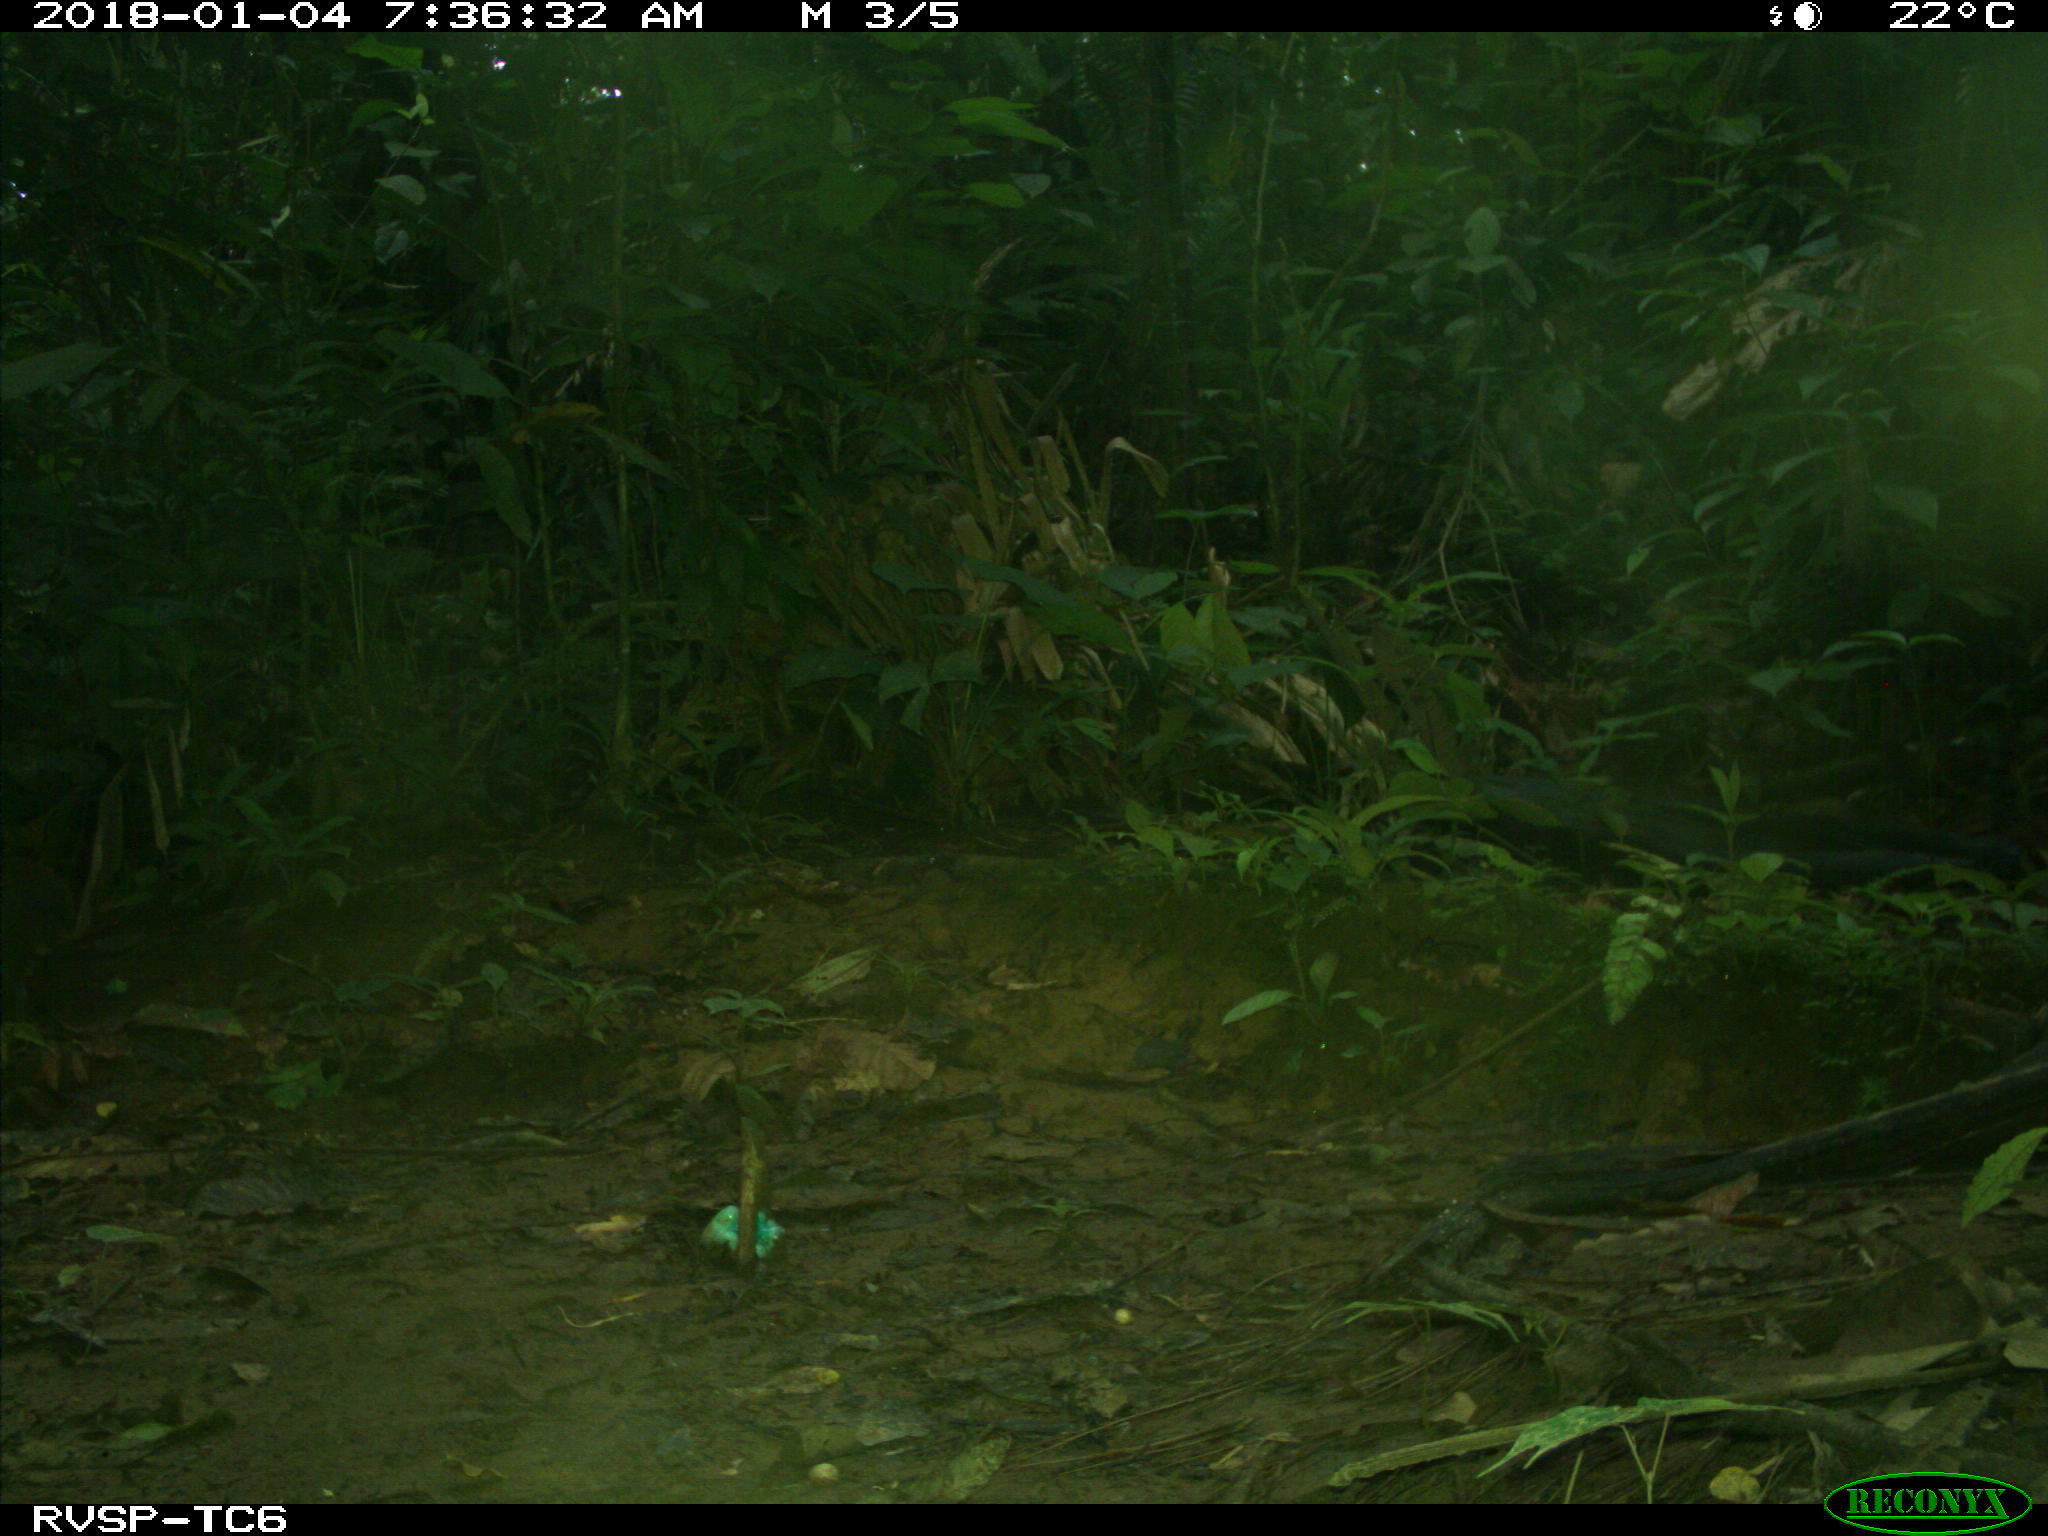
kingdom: Animalia
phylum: Chordata
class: Mammalia
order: Rodentia
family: Dasyproctidae
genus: Dasyprocta
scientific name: Dasyprocta punctata
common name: Central american agouti
